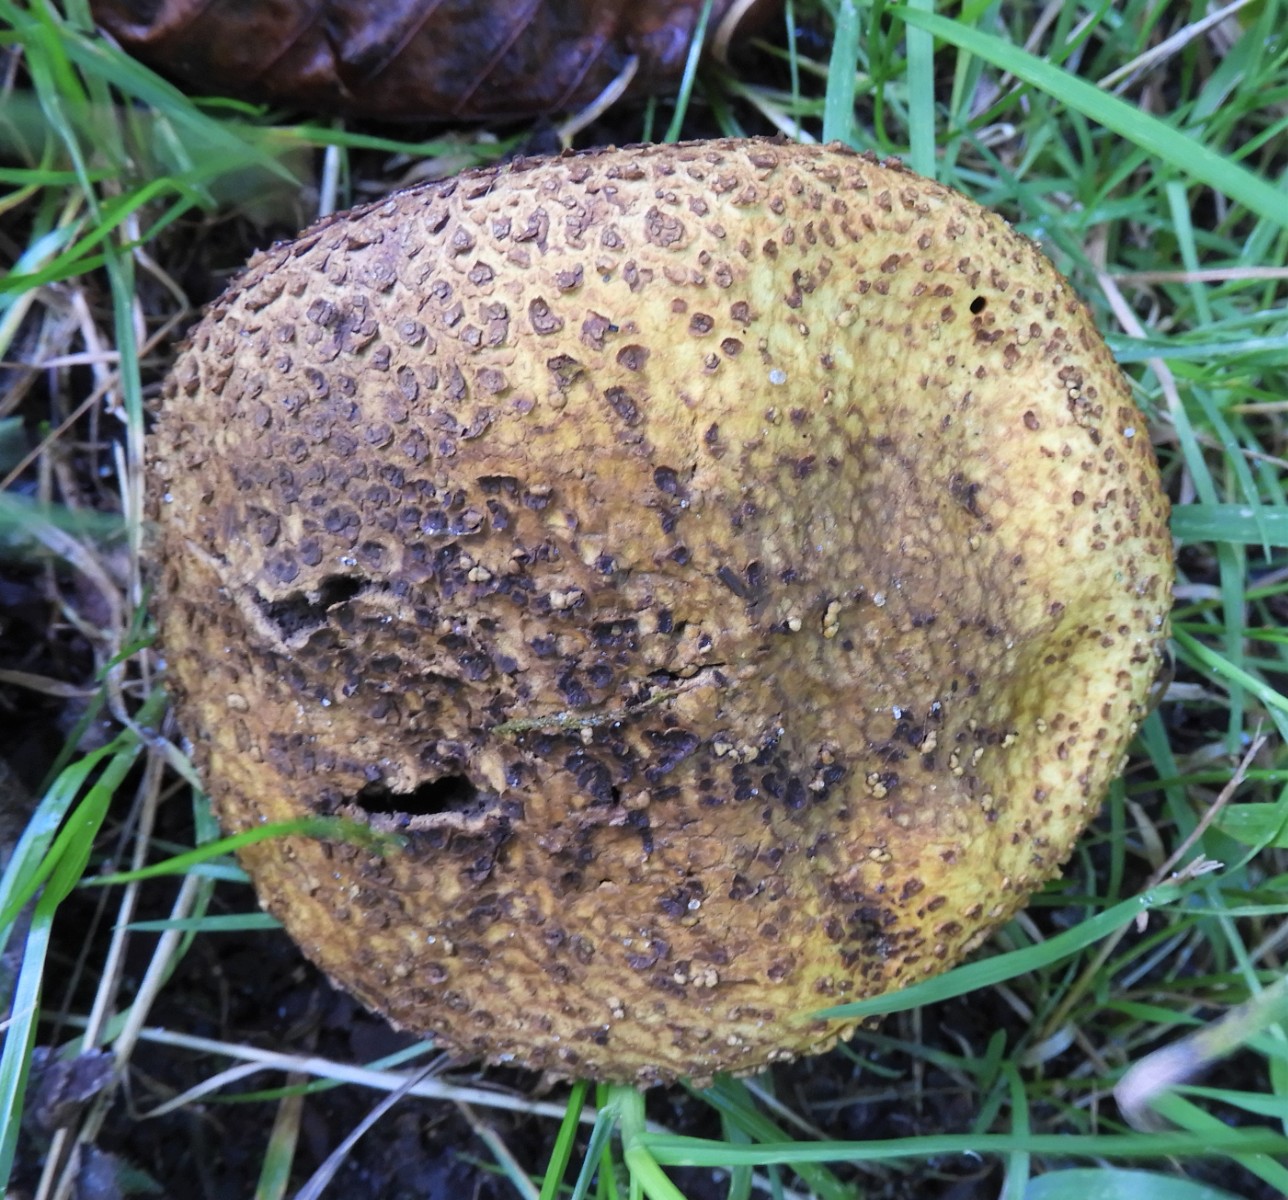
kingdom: Fungi
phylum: Basidiomycota
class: Agaricomycetes
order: Boletales
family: Sclerodermataceae
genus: Scleroderma
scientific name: Scleroderma verrucosum
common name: stilket bruskbold
